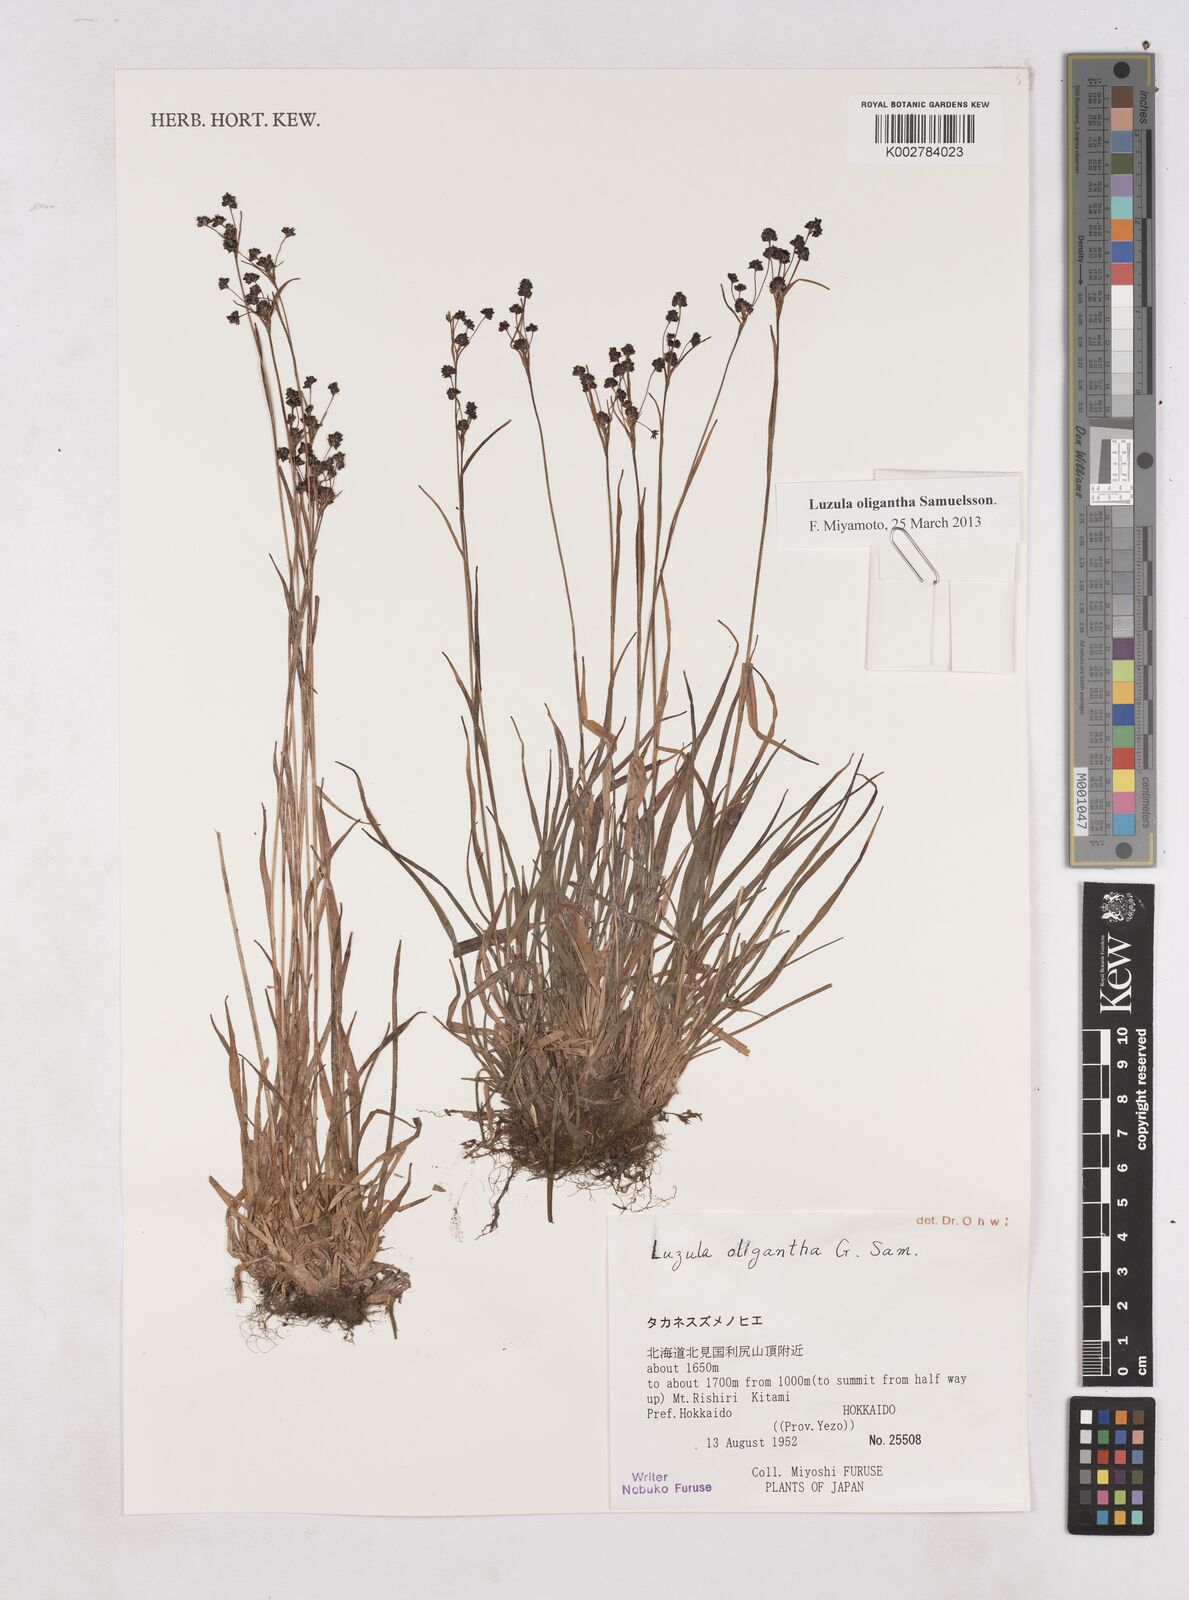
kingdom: Plantae
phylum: Tracheophyta
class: Liliopsida
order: Poales
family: Juncaceae
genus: Luzula
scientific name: Luzula oligantha
